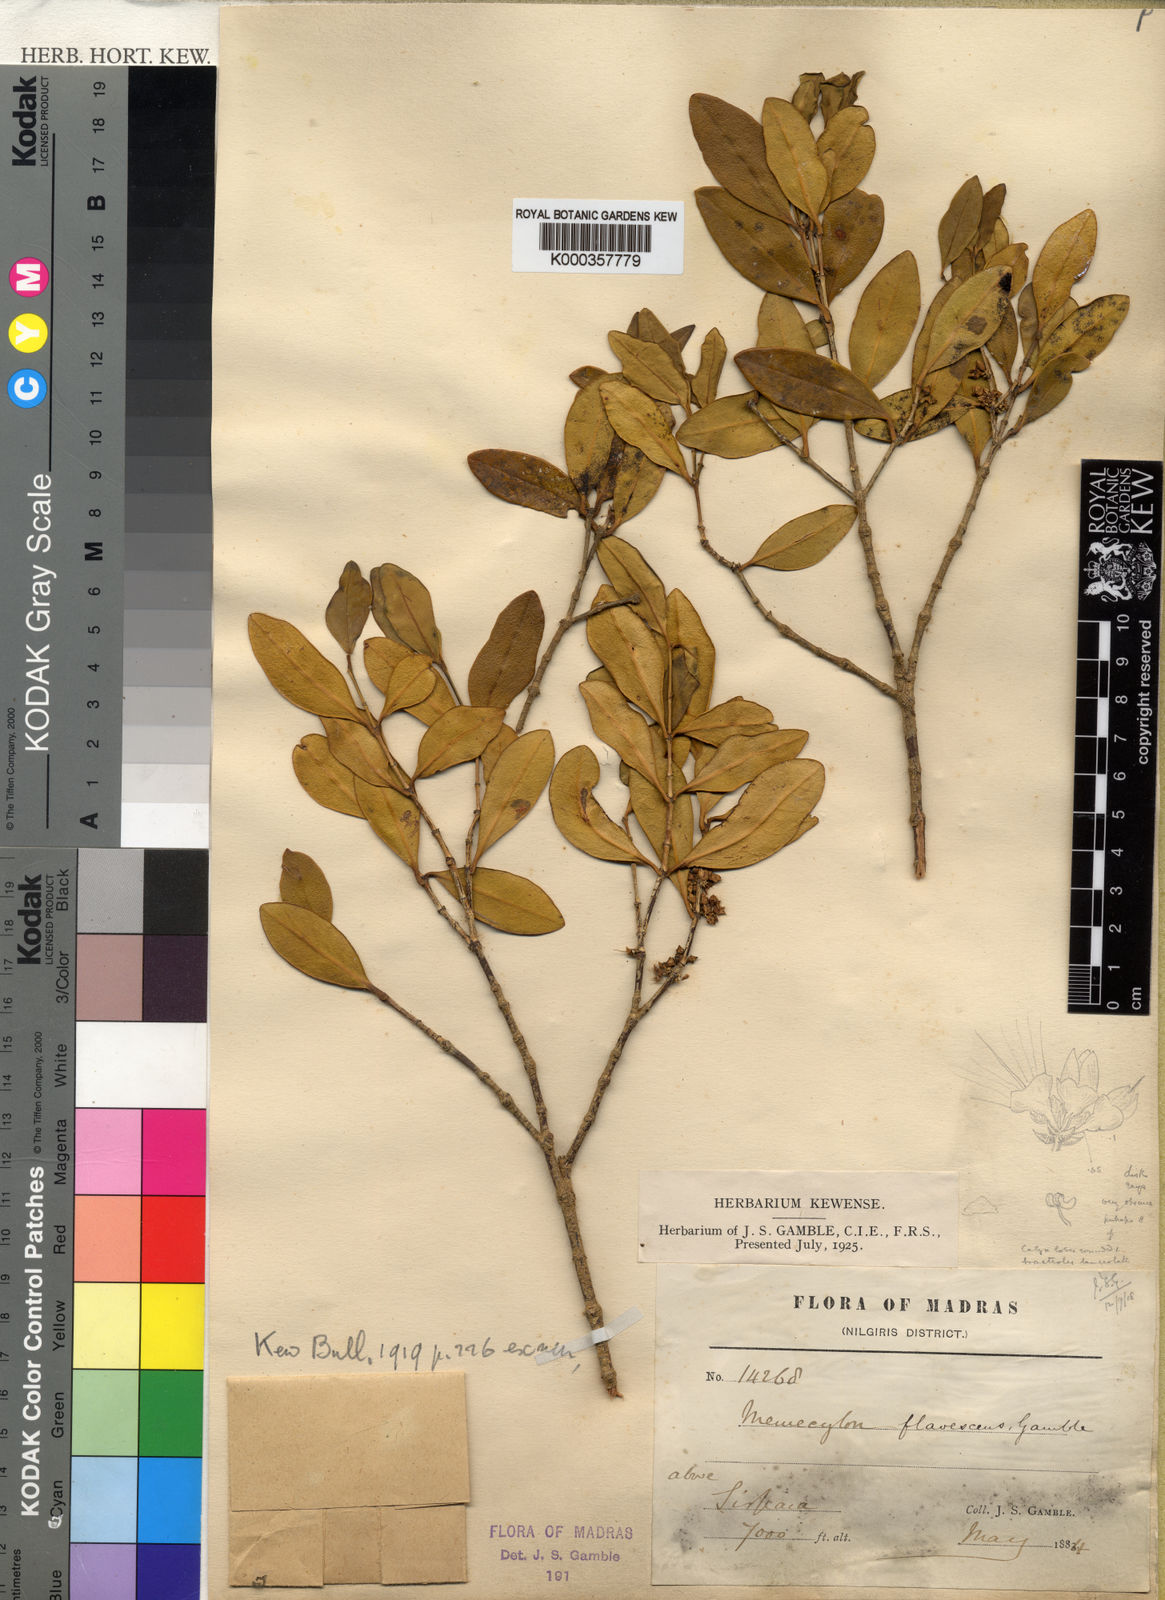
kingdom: Plantae
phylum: Tracheophyta
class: Magnoliopsida
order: Myrtales
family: Melastomataceae
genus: Memecylon
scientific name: Memecylon flavescens
